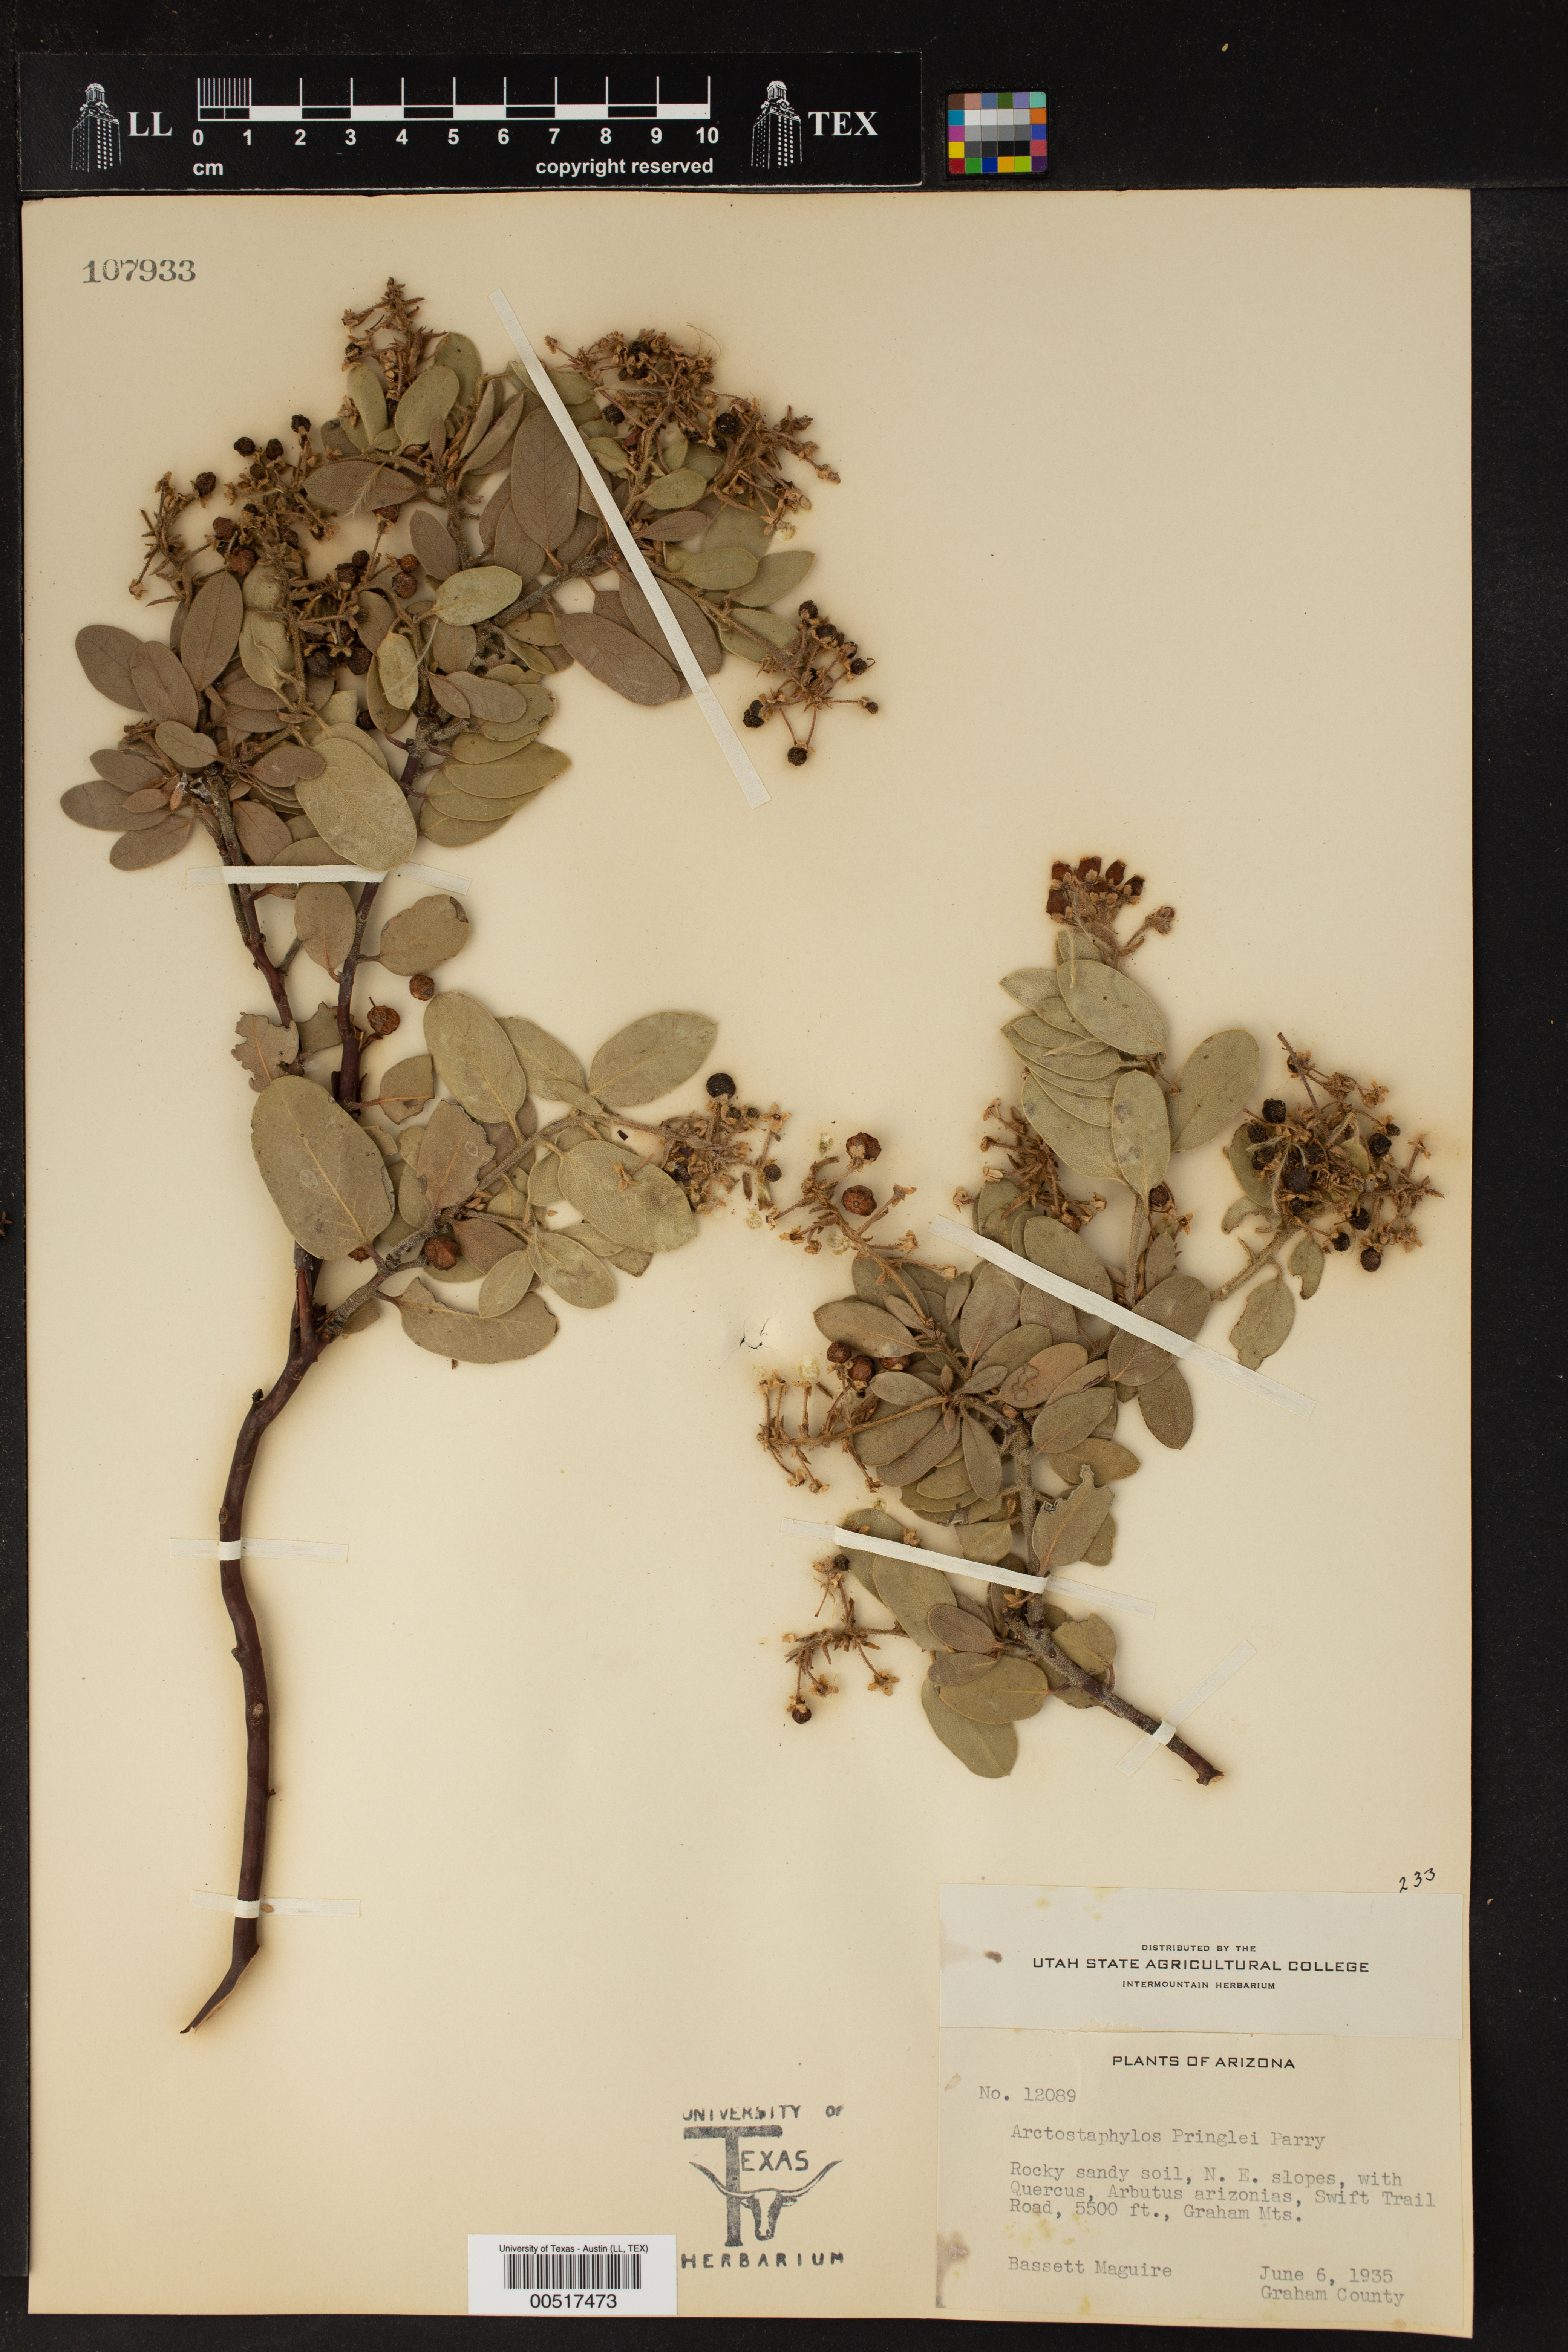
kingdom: Plantae
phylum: Tracheophyta
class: Magnoliopsida
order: Ericales
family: Ericaceae
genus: Arctostaphylos
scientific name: Arctostaphylos pringlei
